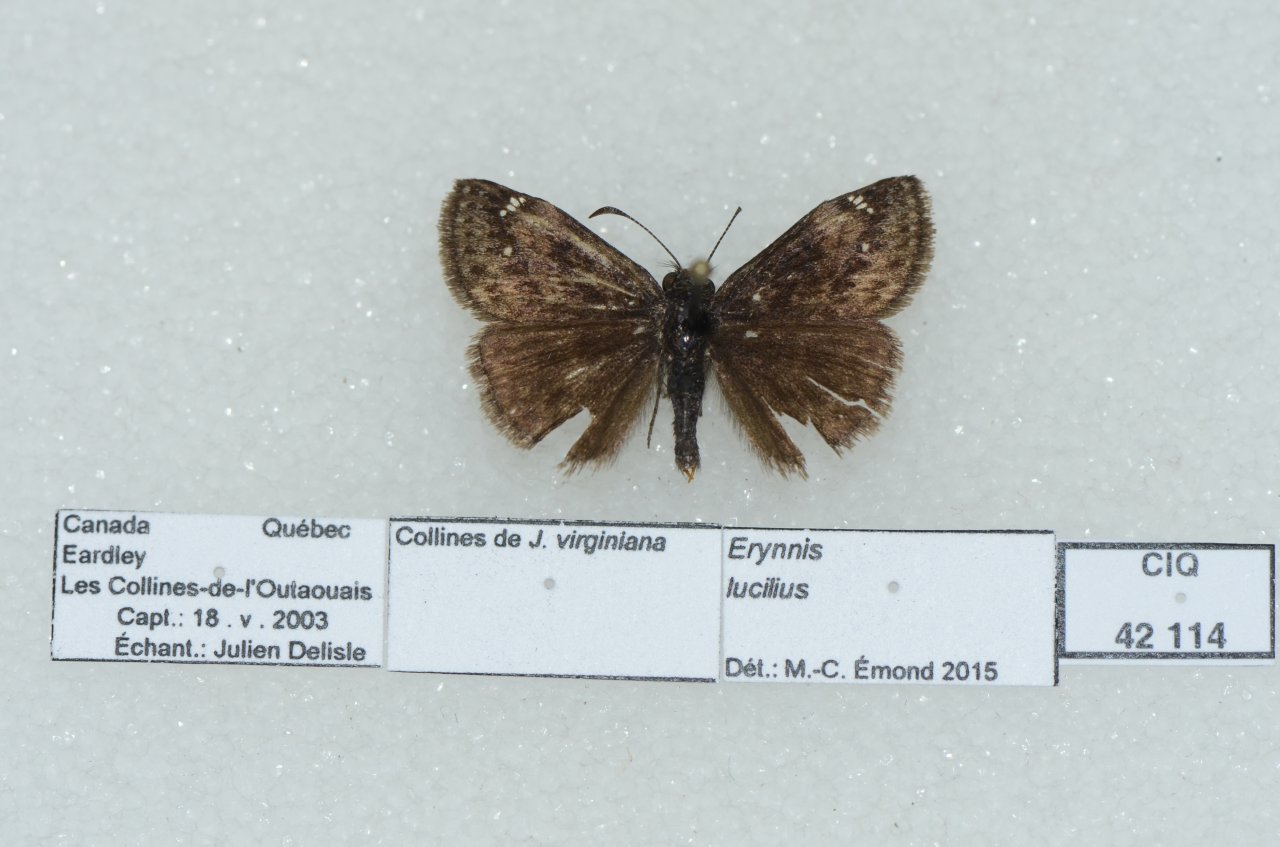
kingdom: Animalia
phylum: Arthropoda
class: Insecta
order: Lepidoptera
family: Hesperiidae
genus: Gesta
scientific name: Gesta
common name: Columbine Duskywing
